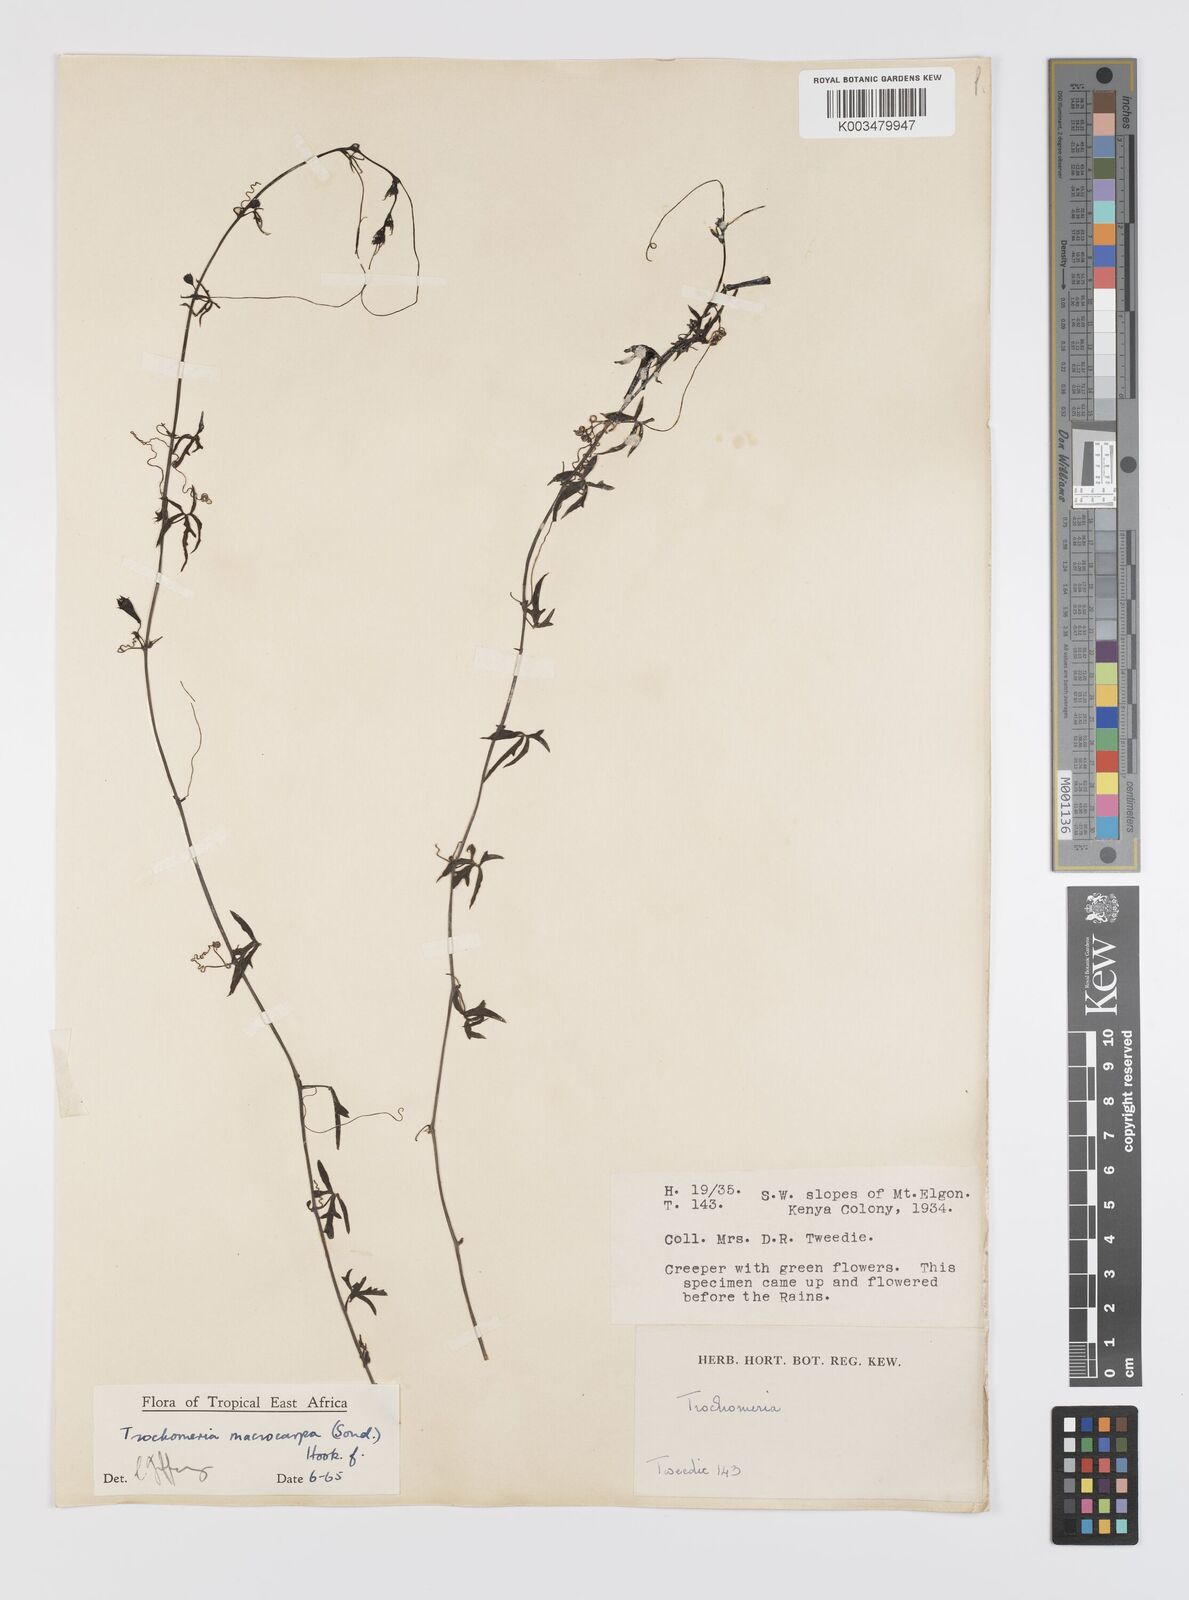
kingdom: Plantae
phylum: Tracheophyta
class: Magnoliopsida
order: Cucurbitales
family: Cucurbitaceae
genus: Trochomeria
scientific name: Trochomeria macrocarpa
